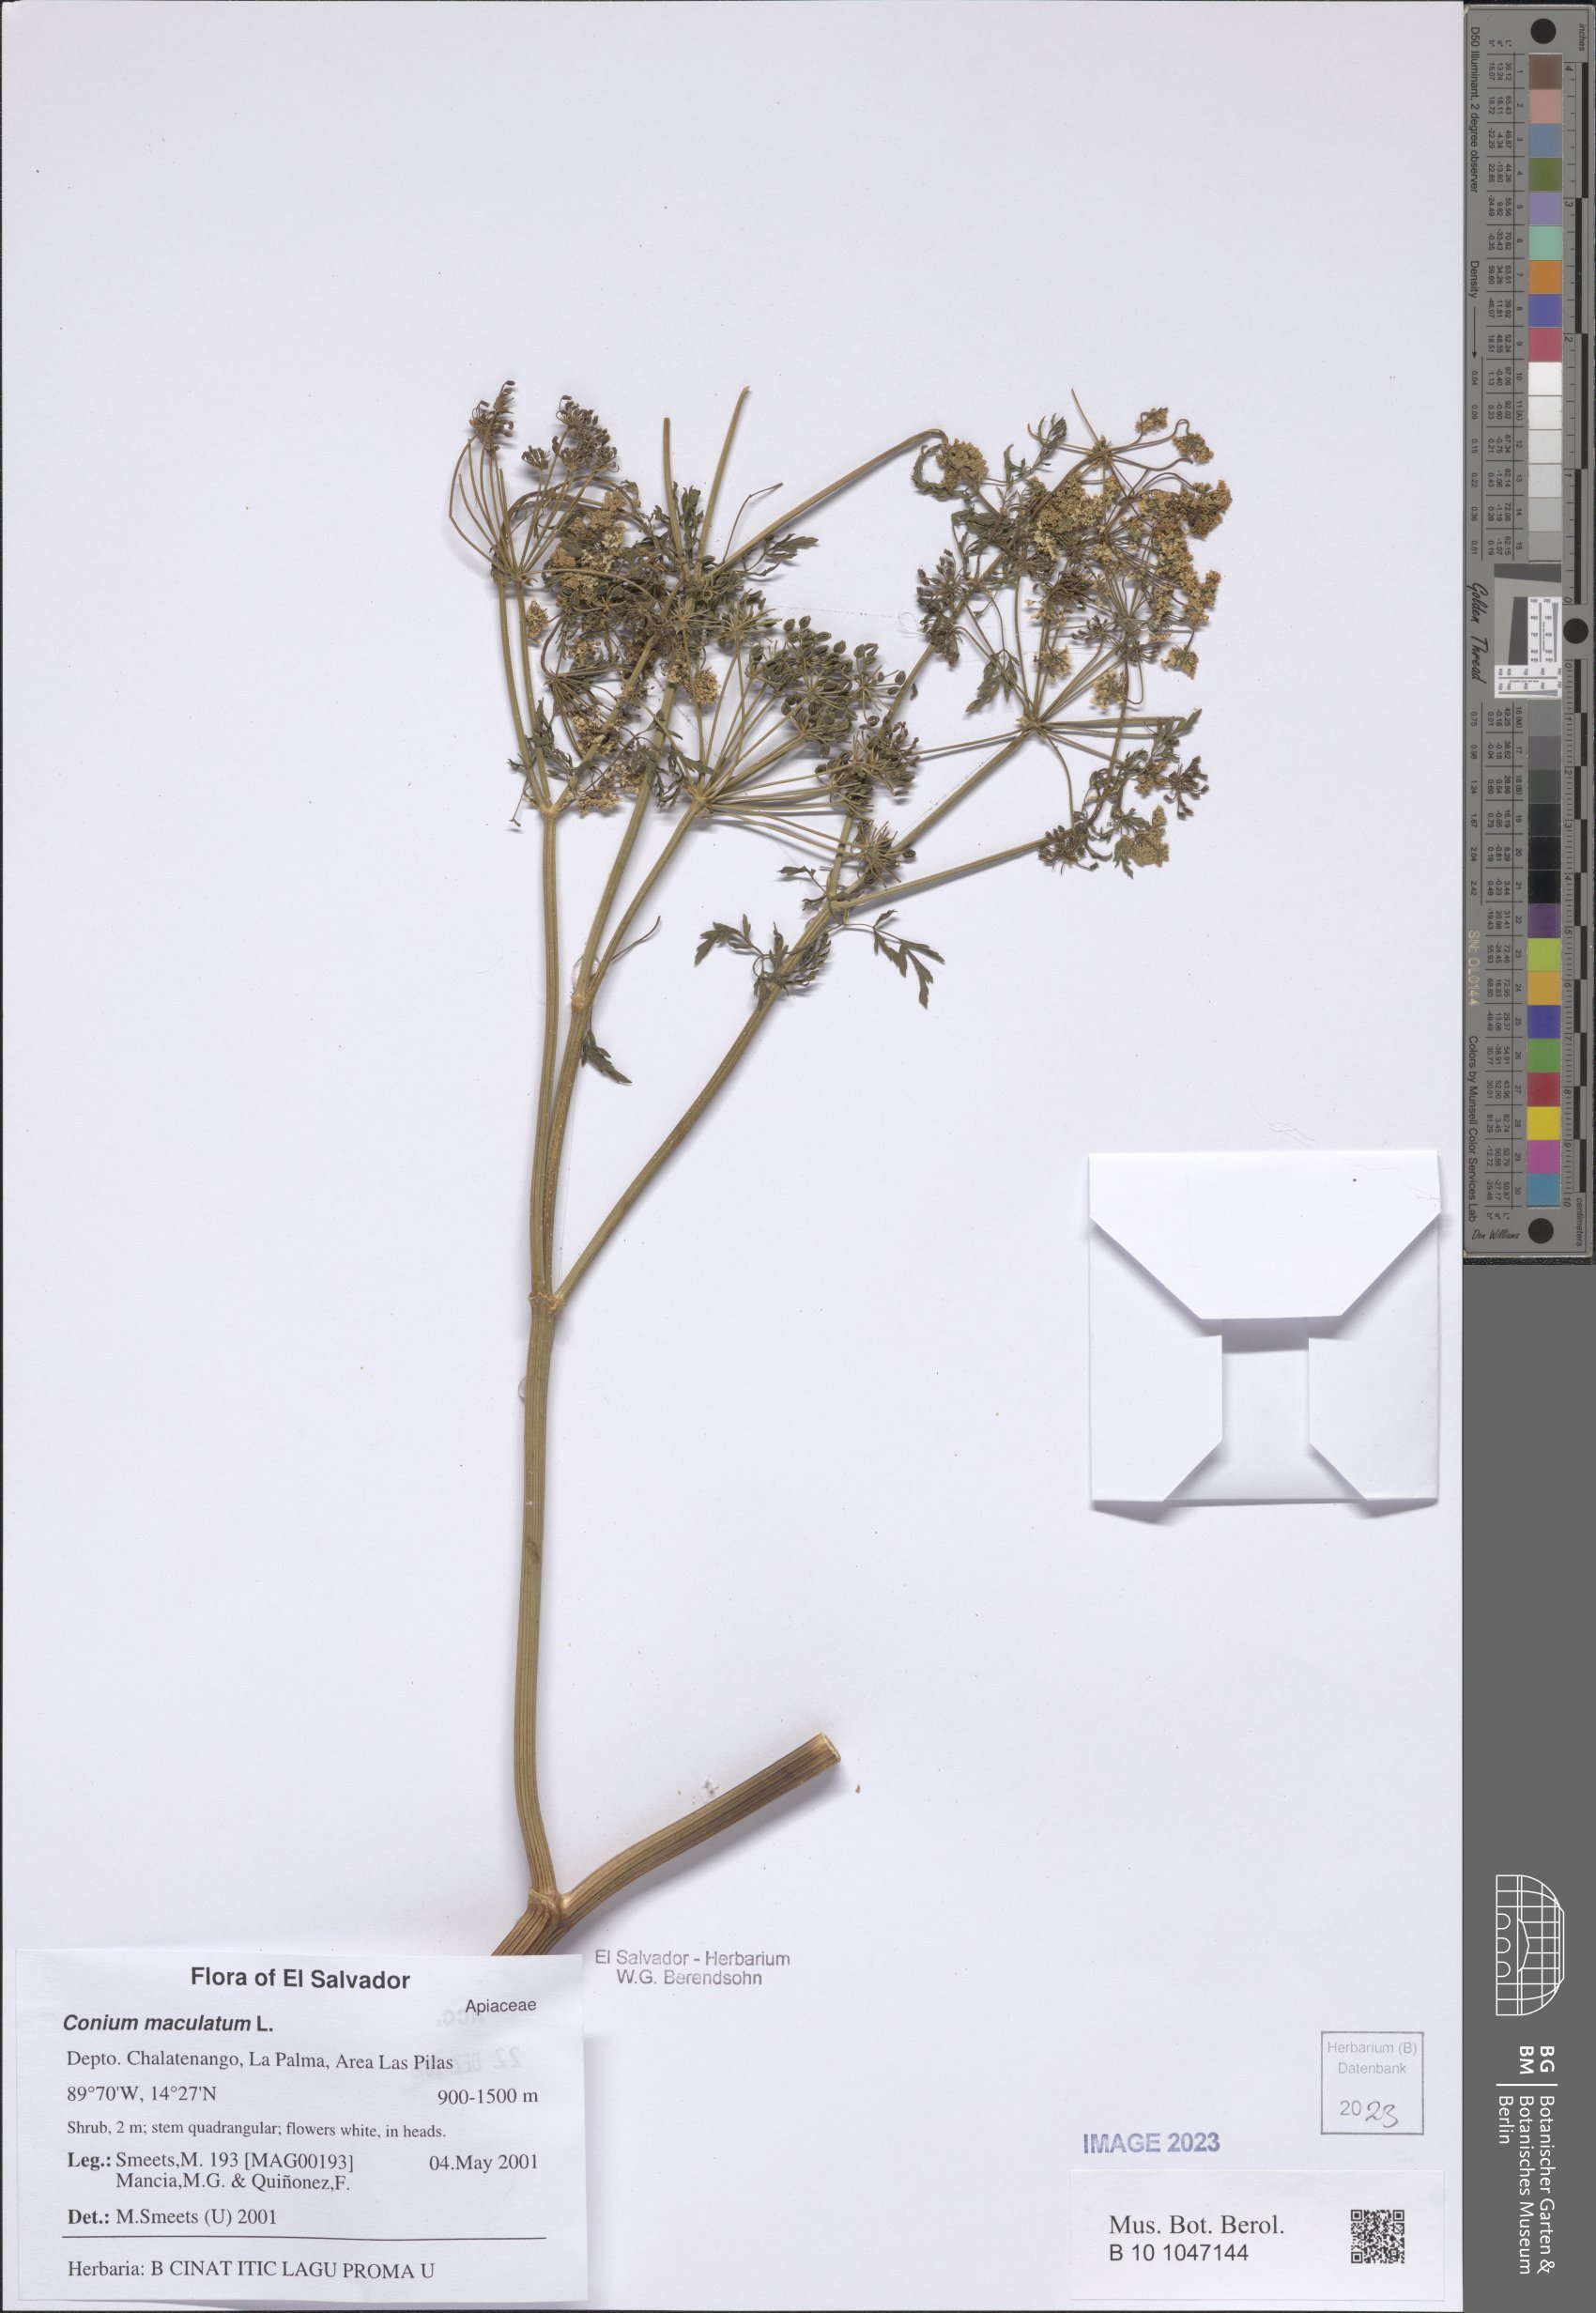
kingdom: Plantae
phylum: Tracheophyta
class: Magnoliopsida
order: Apiales
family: Apiaceae
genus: Conium
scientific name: Conium maculatum
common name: Hemlock
